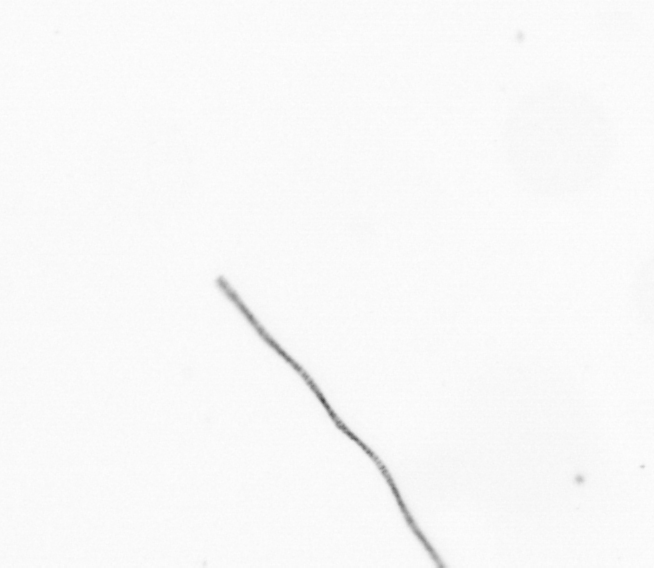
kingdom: Chromista
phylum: Ochrophyta
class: Bacillariophyceae
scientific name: Bacillariophyceae
